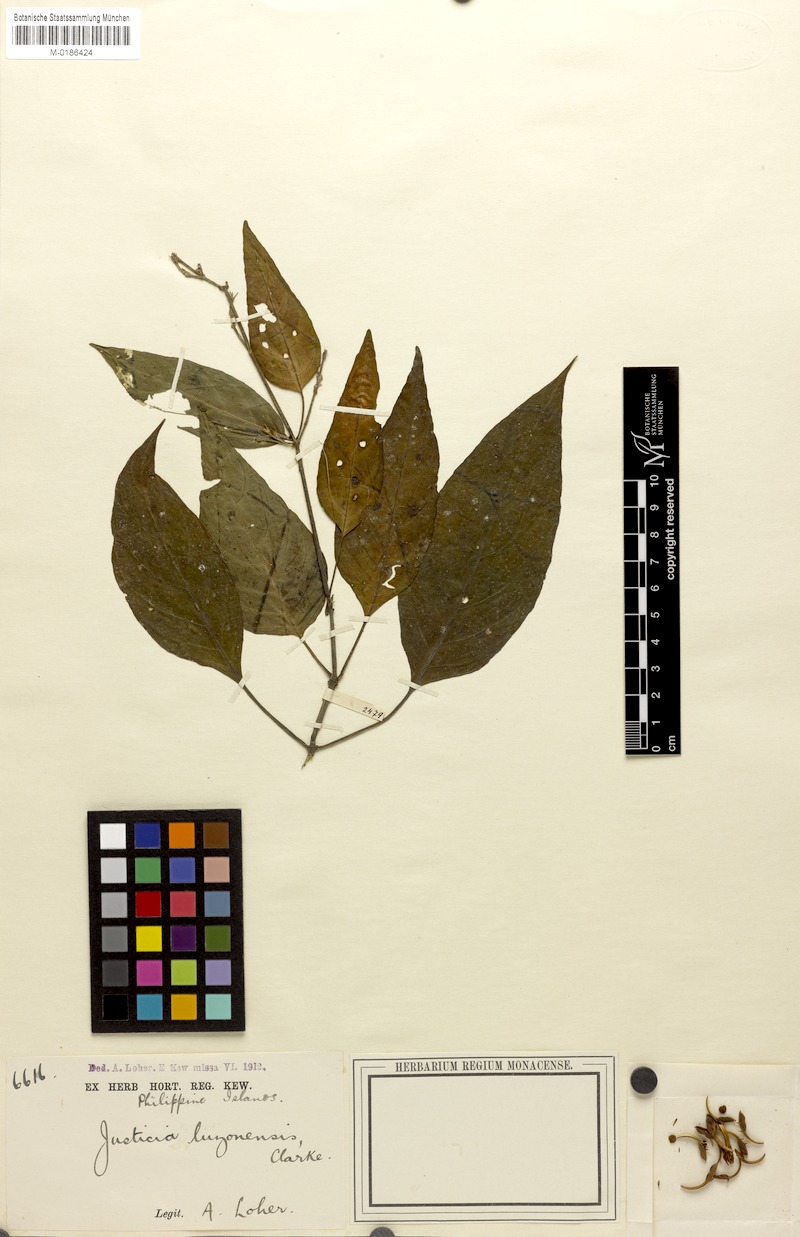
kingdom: Plantae
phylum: Tracheophyta
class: Magnoliopsida
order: Lamiales
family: Acanthaceae
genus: Rhaphidospora
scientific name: Rhaphidospora luzonensis
